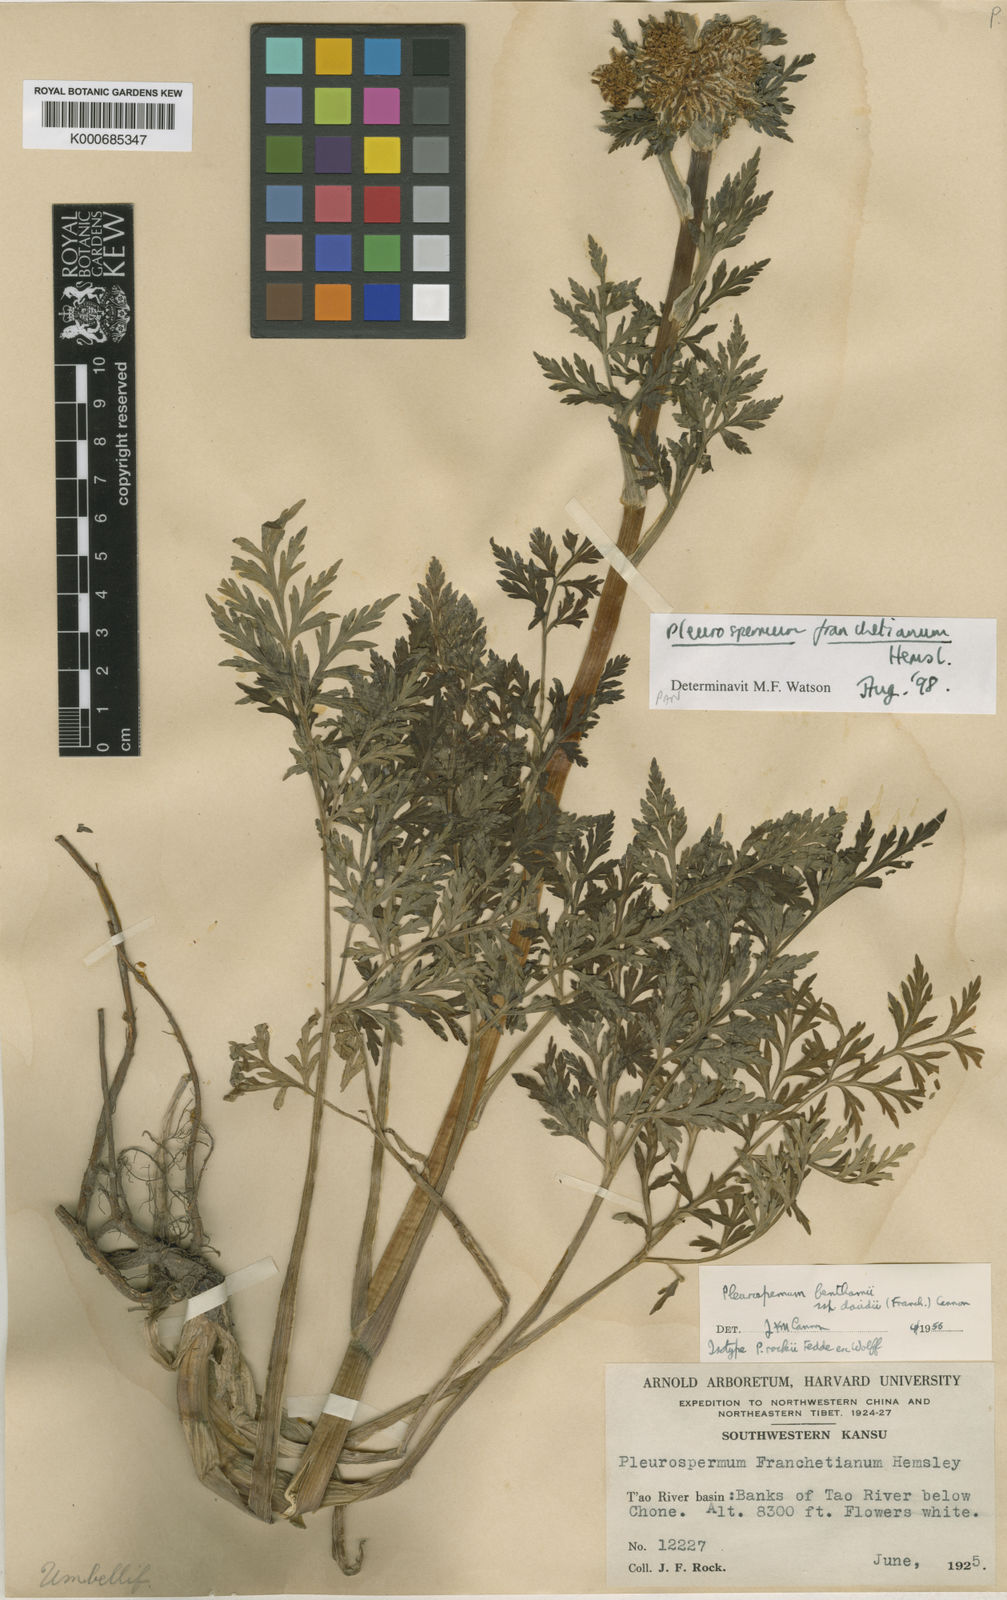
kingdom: Plantae
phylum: Tracheophyta
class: Magnoliopsida
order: Apiales
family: Apiaceae
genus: Hymenidium
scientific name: Hymenidium
